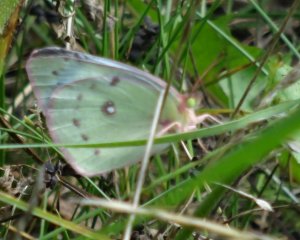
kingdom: Animalia
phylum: Arthropoda
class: Insecta
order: Lepidoptera
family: Pieridae
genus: Colias
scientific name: Colias philodice
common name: Clouded Sulphur
